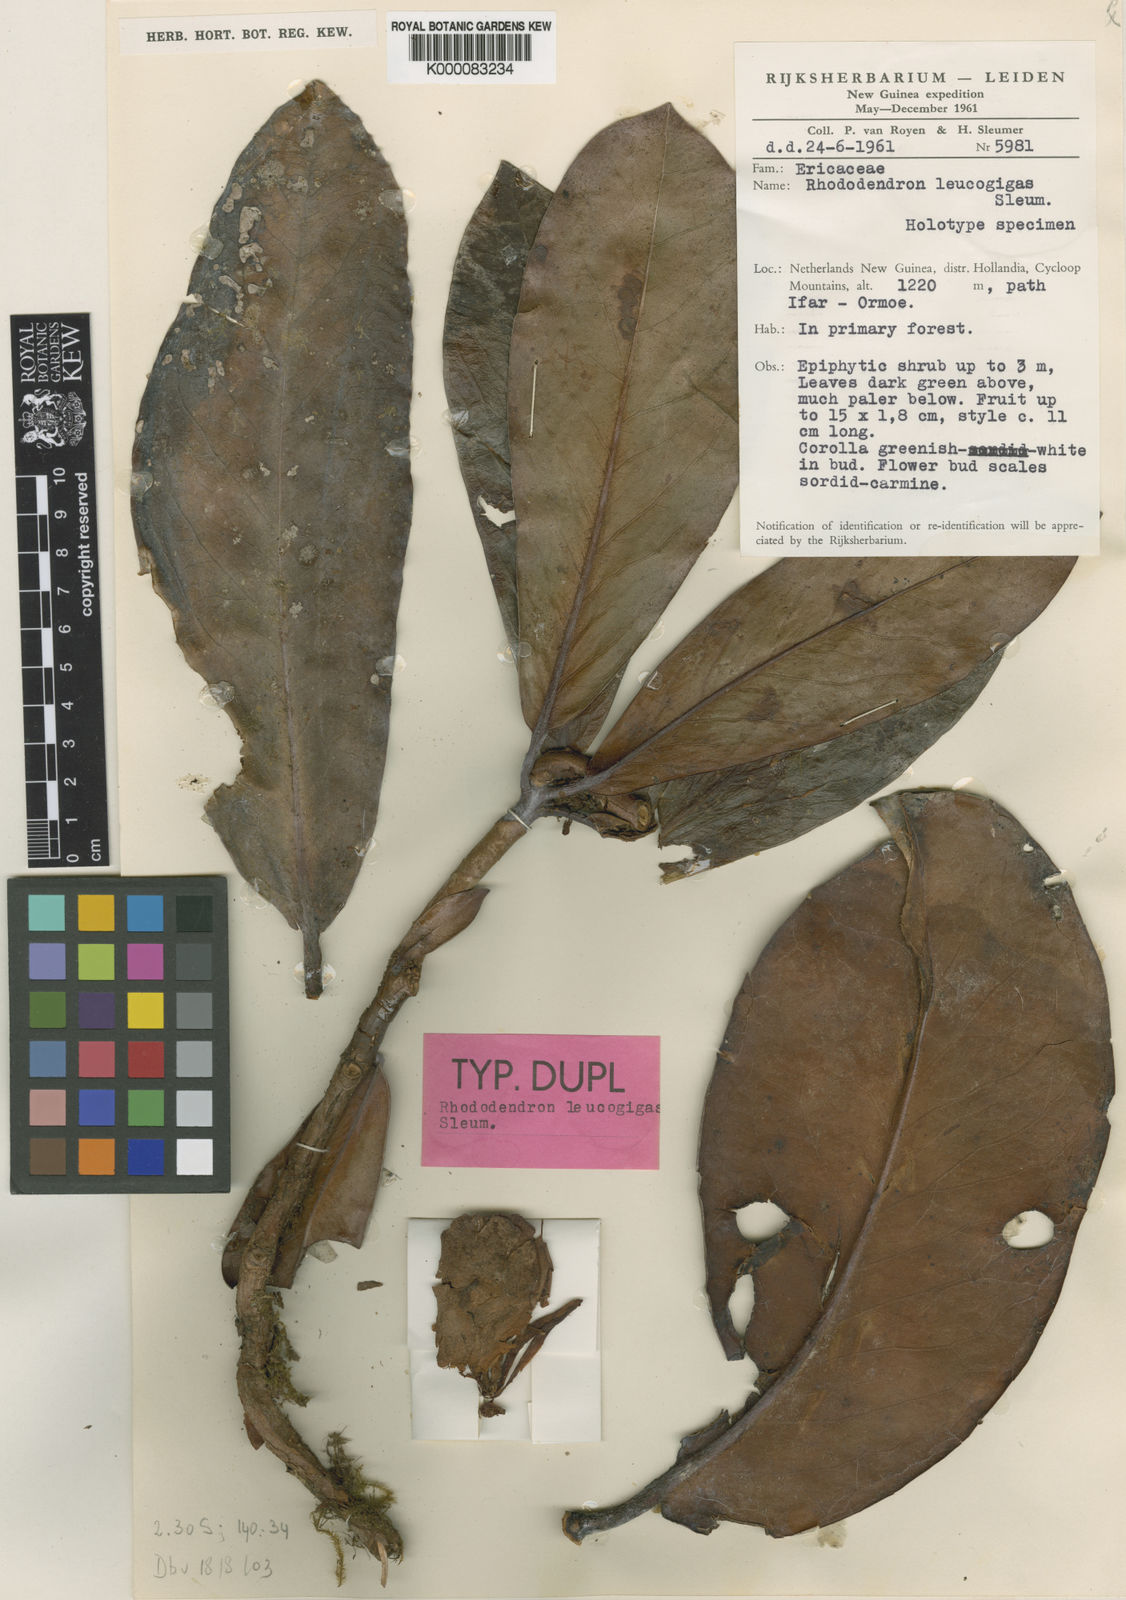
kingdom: Plantae
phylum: Tracheophyta
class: Magnoliopsida
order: Ericales
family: Ericaceae
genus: Rhododendron
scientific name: Rhododendron leucogigas
